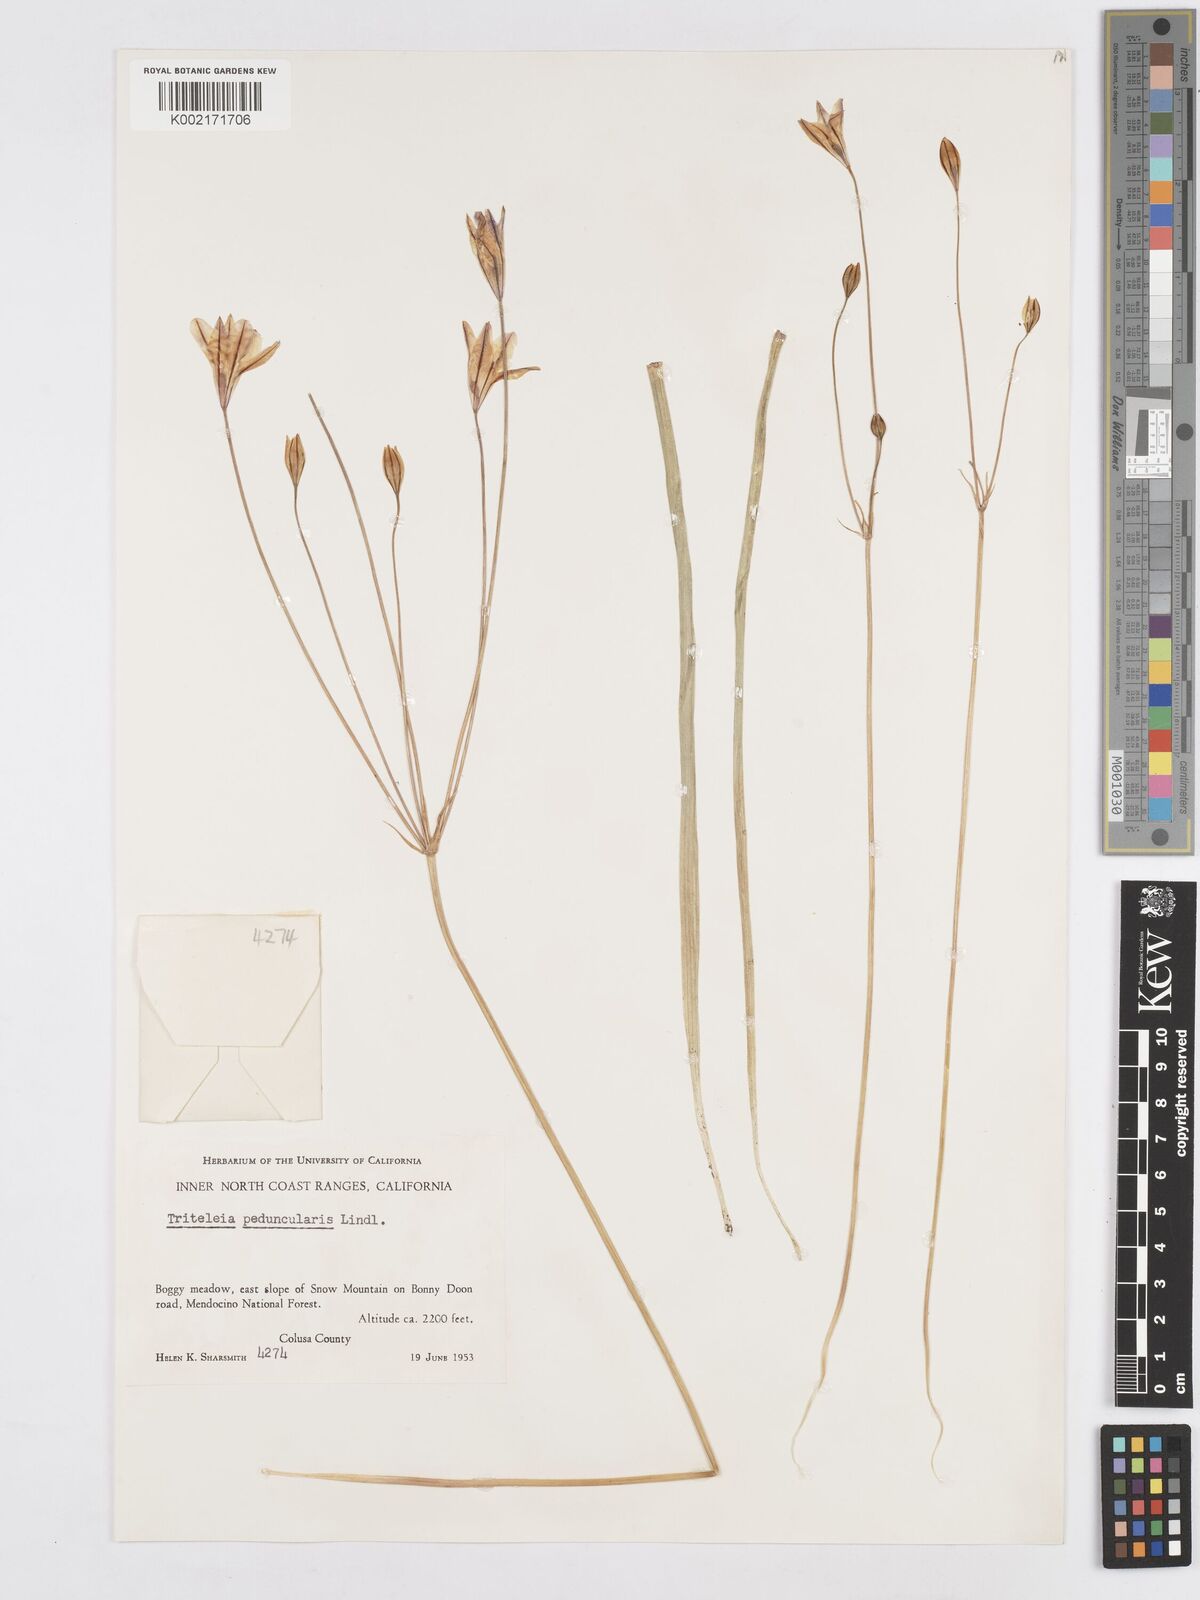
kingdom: Plantae
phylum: Tracheophyta
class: Liliopsida
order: Asparagales
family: Asparagaceae
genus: Triteleia
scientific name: Triteleia peduncularis
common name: Long-ray brodiaea
